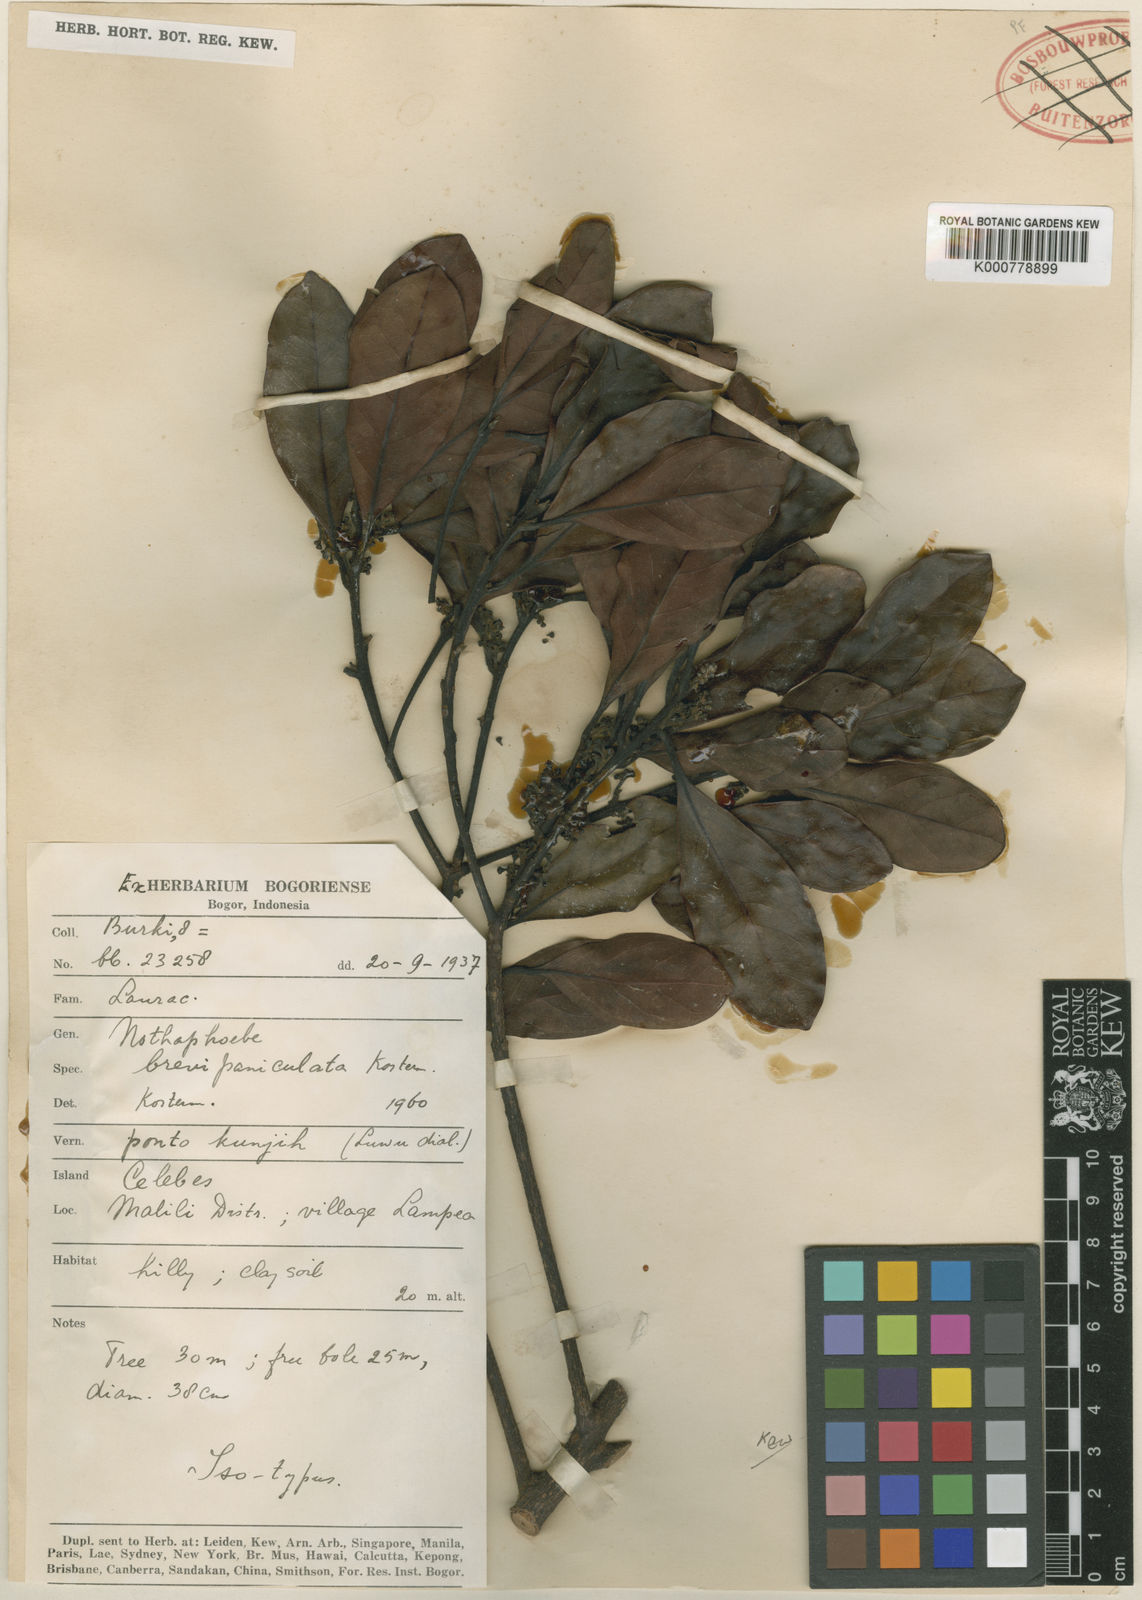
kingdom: Plantae
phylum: Tracheophyta
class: Magnoliopsida
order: Laurales
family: Lauraceae
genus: Nothaphoebe
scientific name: Nothaphoebe
